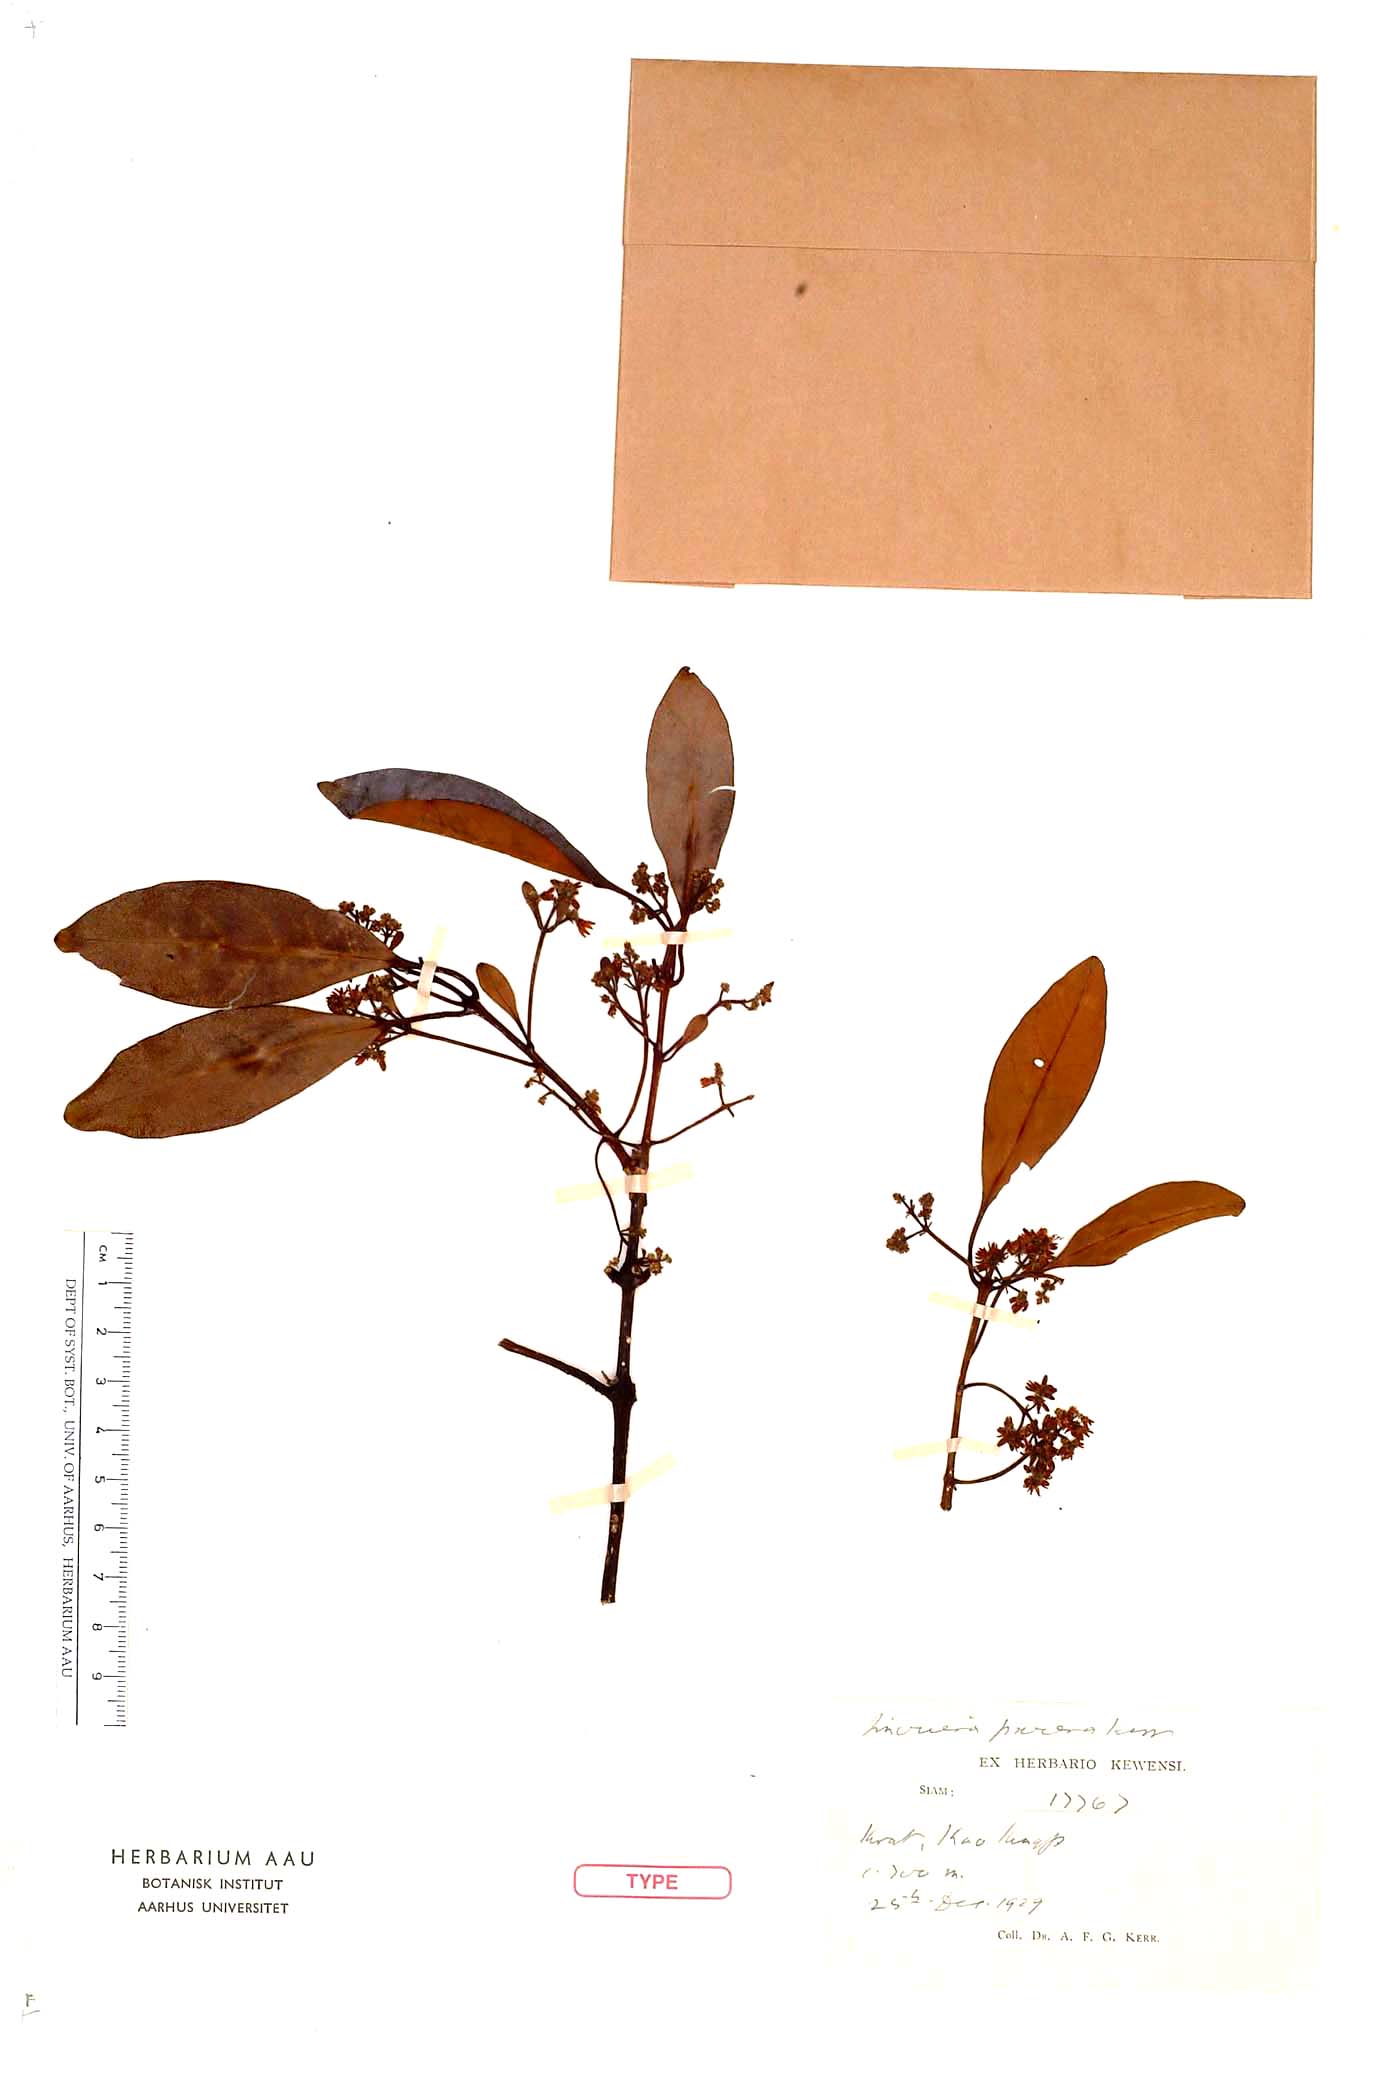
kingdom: Plantae
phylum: Tracheophyta
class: Magnoliopsida
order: Lamiales
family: Oleaceae
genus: Chionanthus
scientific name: Chionanthus thorelii
